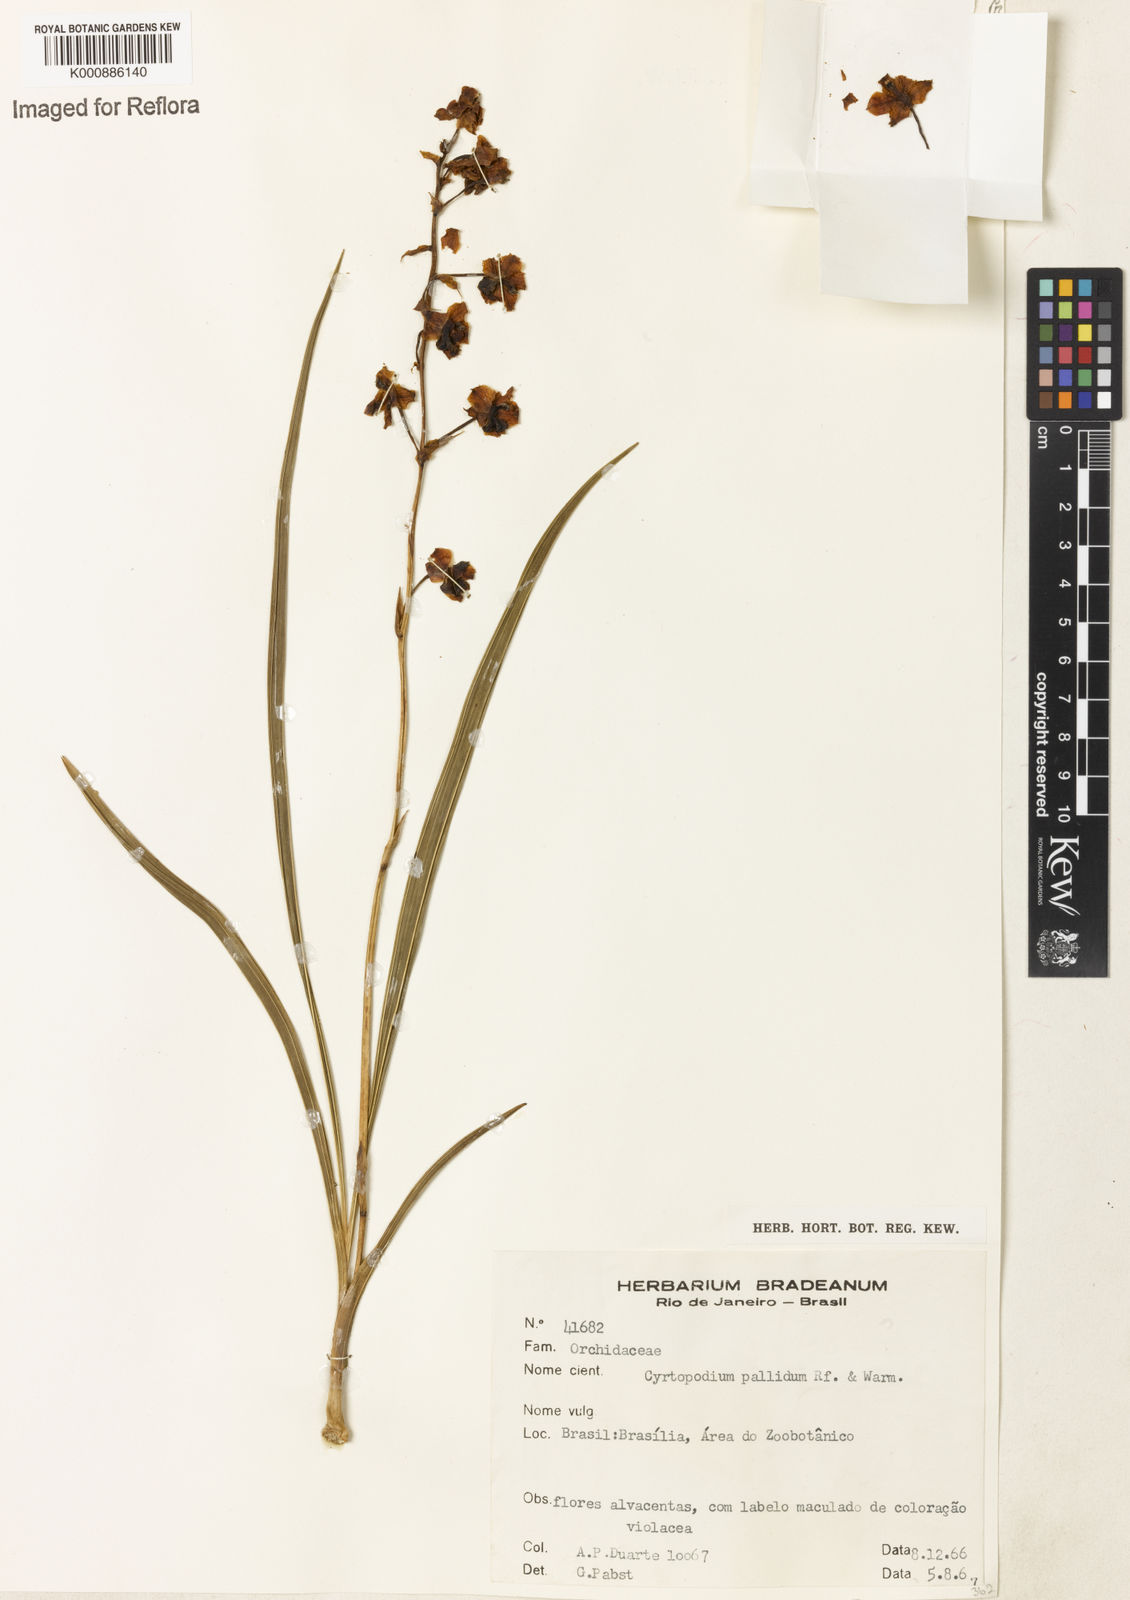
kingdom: Plantae
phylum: Tracheophyta
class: Liliopsida
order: Asparagales
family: Orchidaceae
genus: Cyrtopodium
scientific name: Cyrtopodium pallidum
